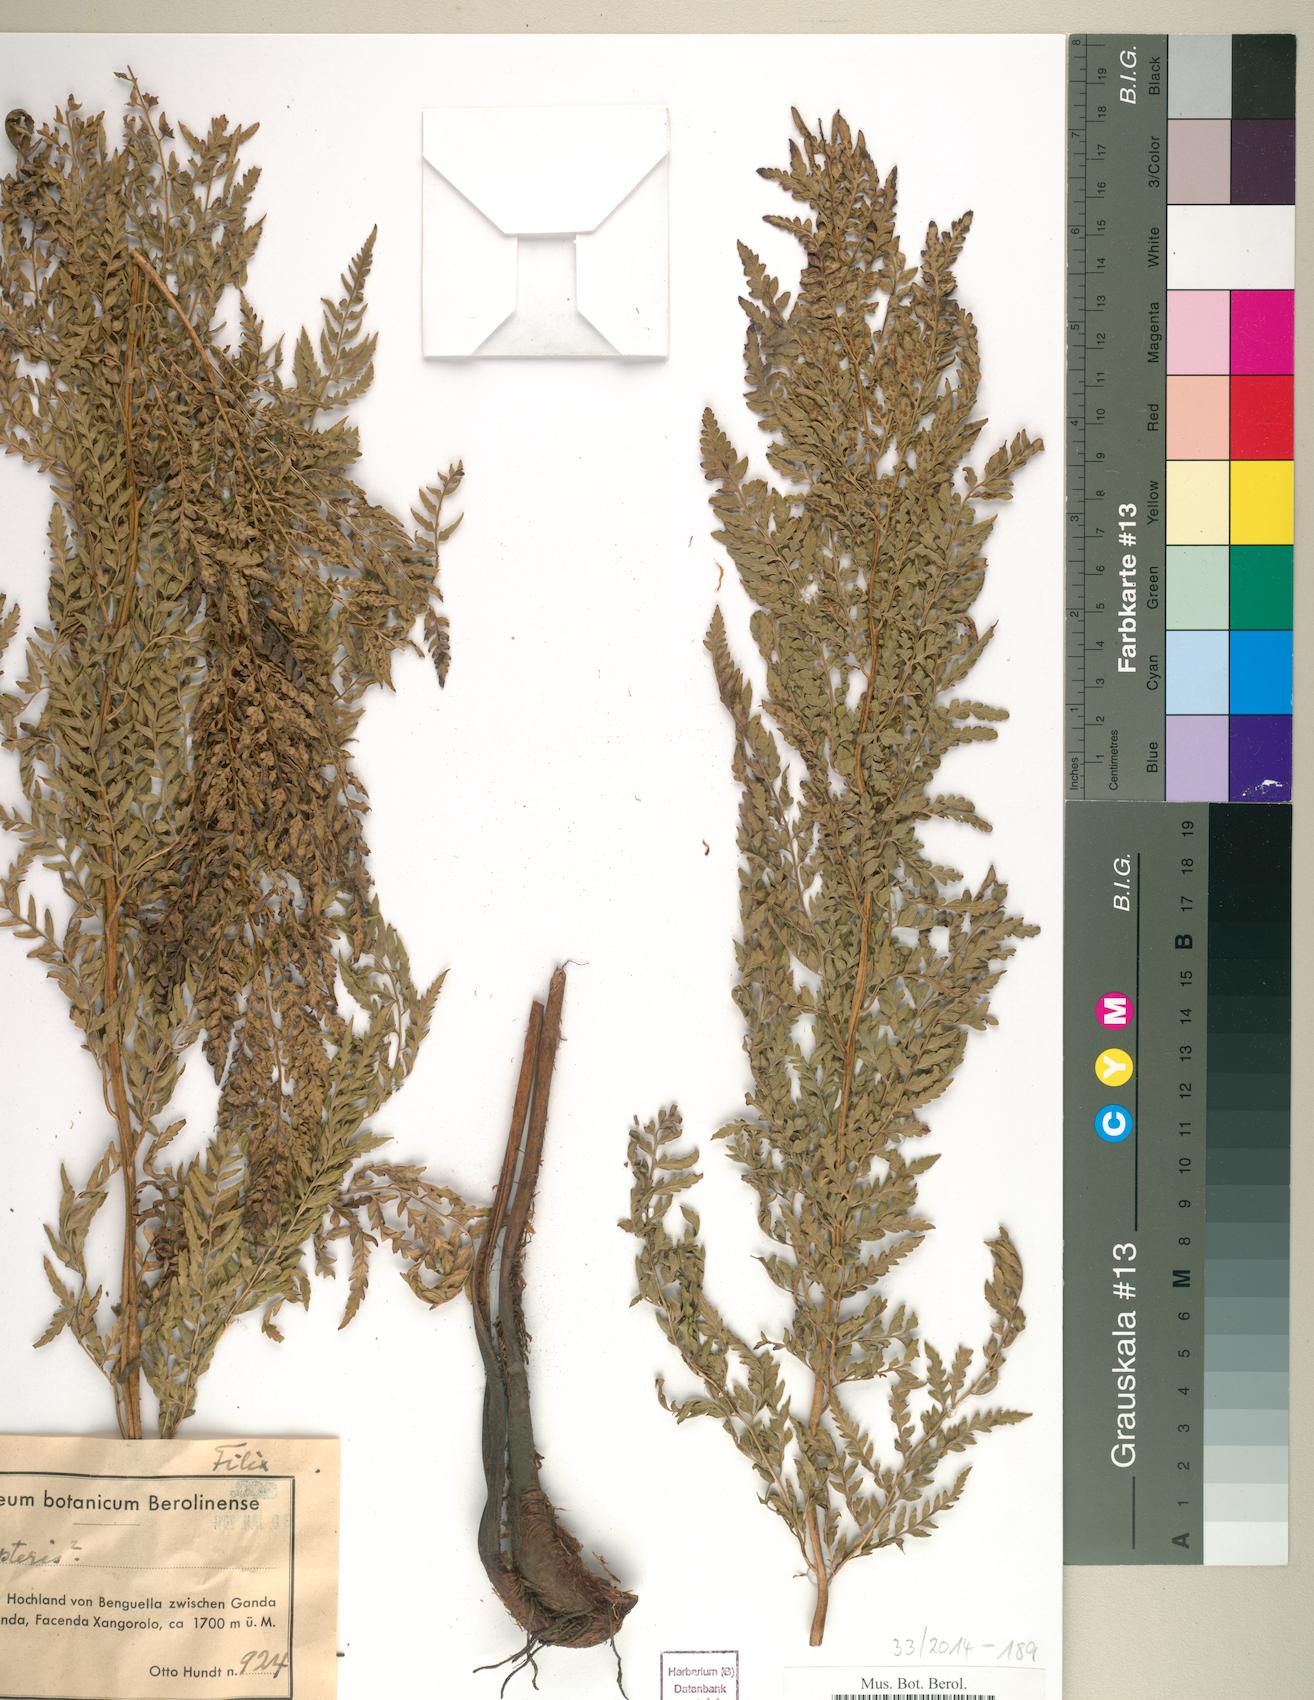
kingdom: Plantae
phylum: Tracheophyta
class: Polypodiopsida
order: Polypodiales
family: Dryopteridaceae
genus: Dryopteris
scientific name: Dryopteris
